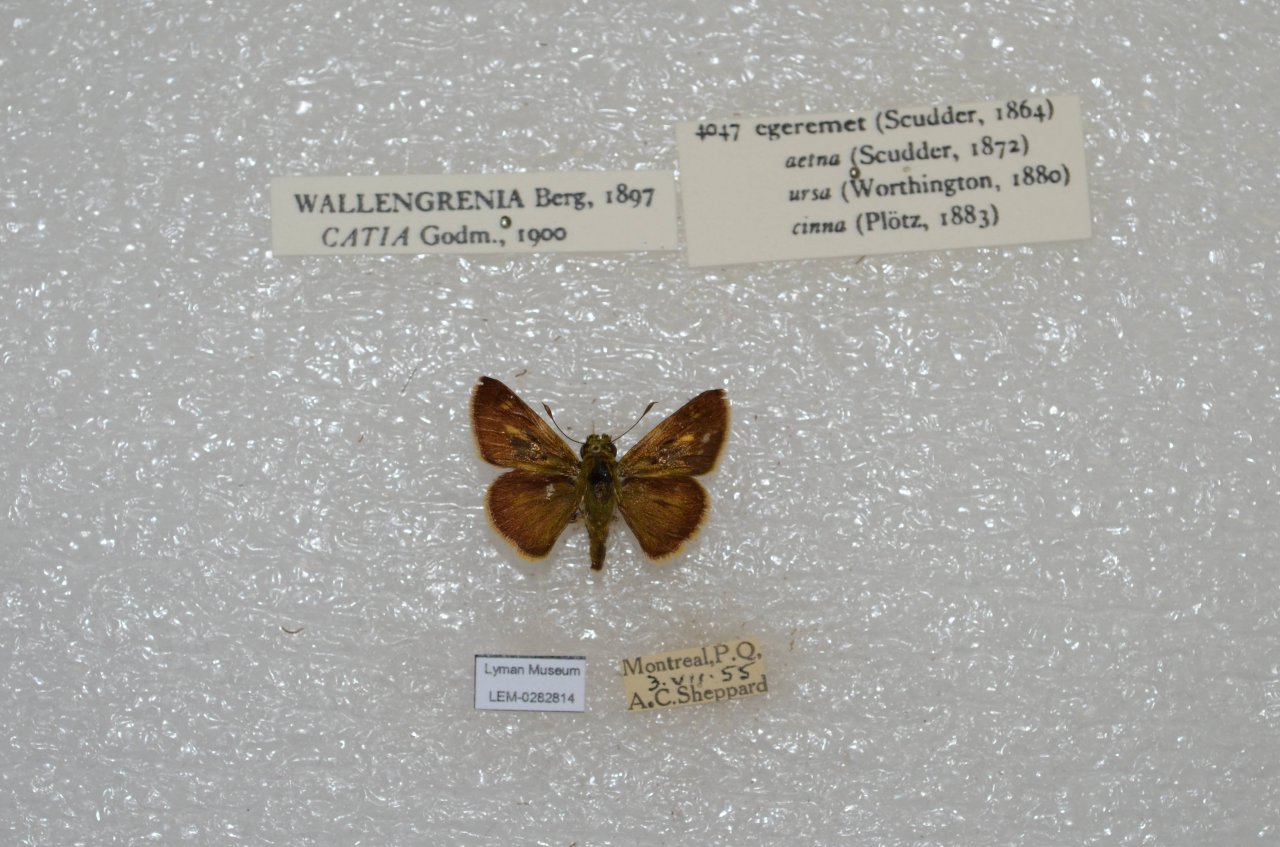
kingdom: Animalia
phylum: Arthropoda
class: Insecta
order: Lepidoptera
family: Hesperiidae
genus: Polites
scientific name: Polites egeremet
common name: Northern Broken-Dash
